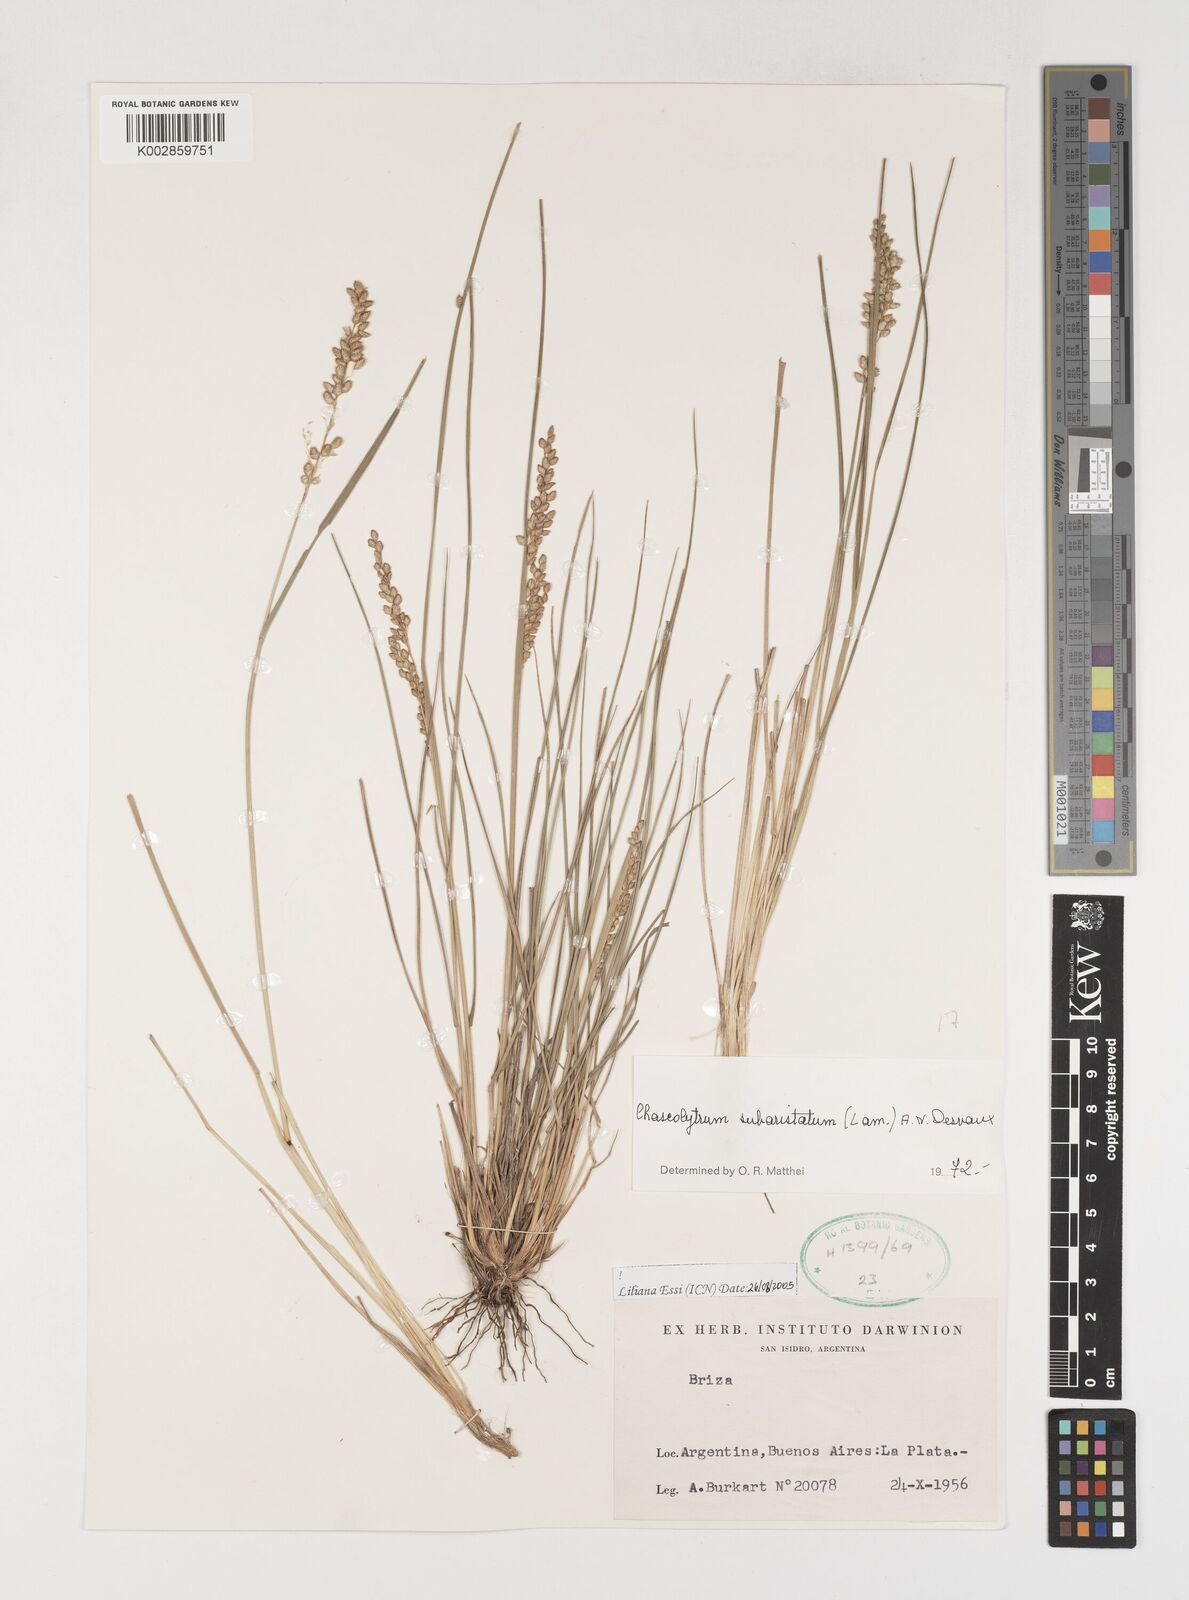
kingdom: Plantae
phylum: Tracheophyta
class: Liliopsida
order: Poales
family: Poaceae
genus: Chascolytrum
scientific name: Chascolytrum subaristatum
